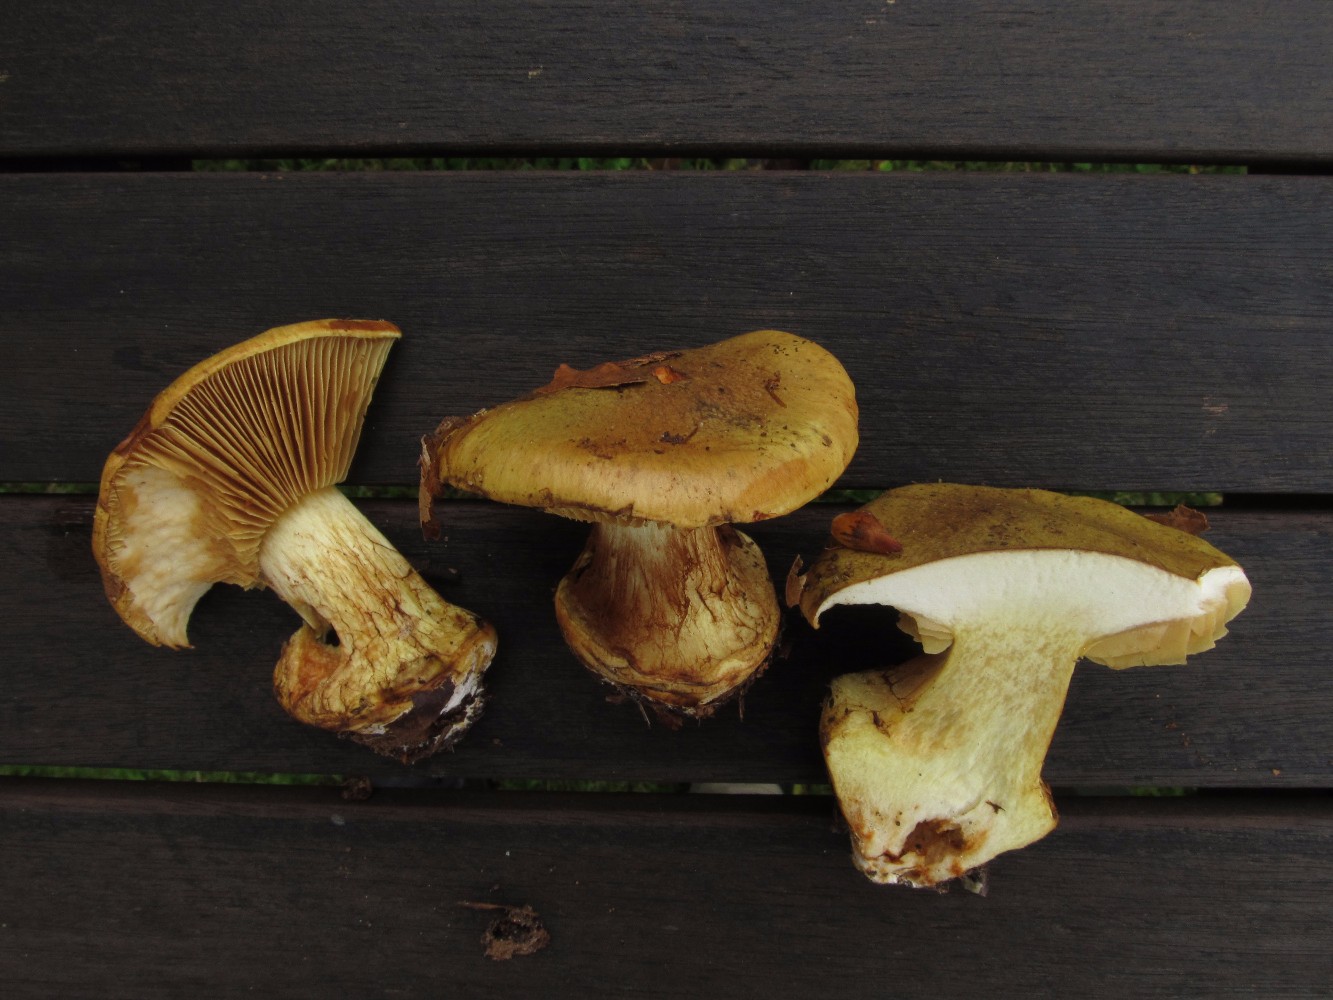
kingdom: Fungi
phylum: Basidiomycota
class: Agaricomycetes
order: Agaricales
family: Cortinariaceae
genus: Calonarius
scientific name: Calonarius xanthochlorus
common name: gulgrøn slørhat
